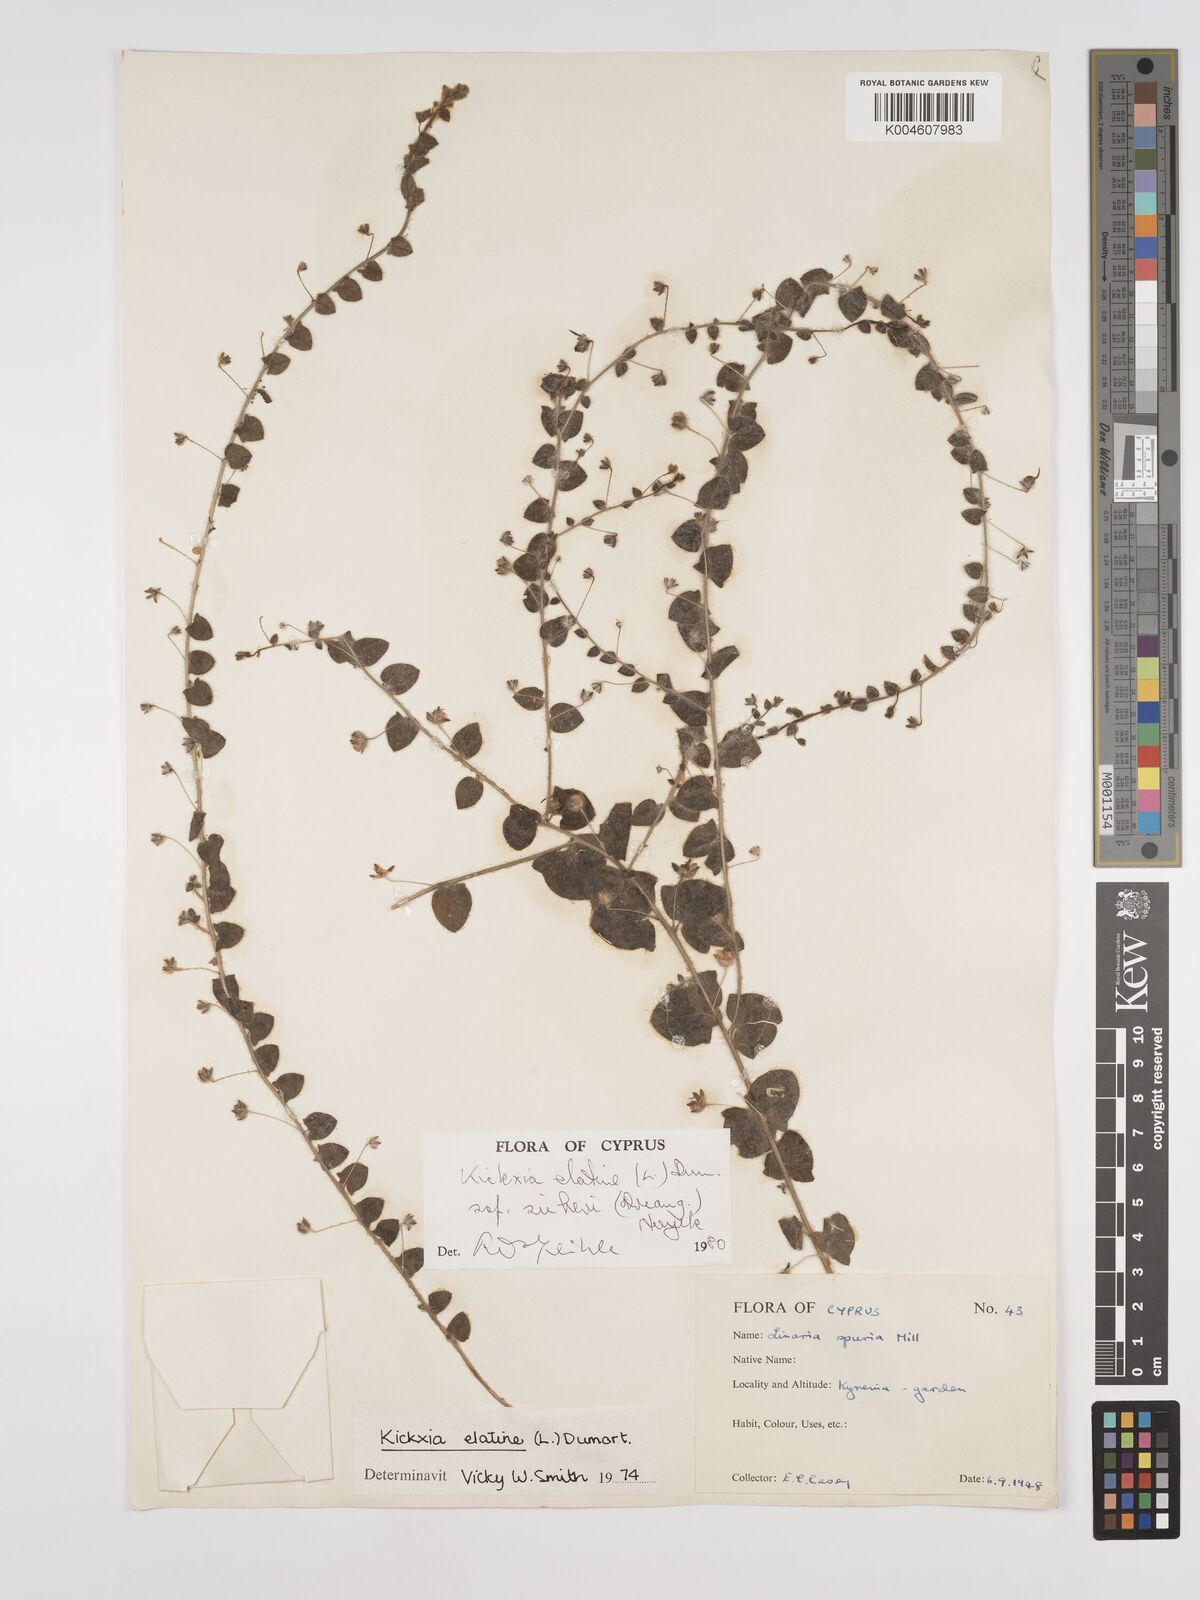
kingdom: Plantae
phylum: Tracheophyta
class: Magnoliopsida
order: Lamiales
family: Plantaginaceae
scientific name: Plantaginaceae
